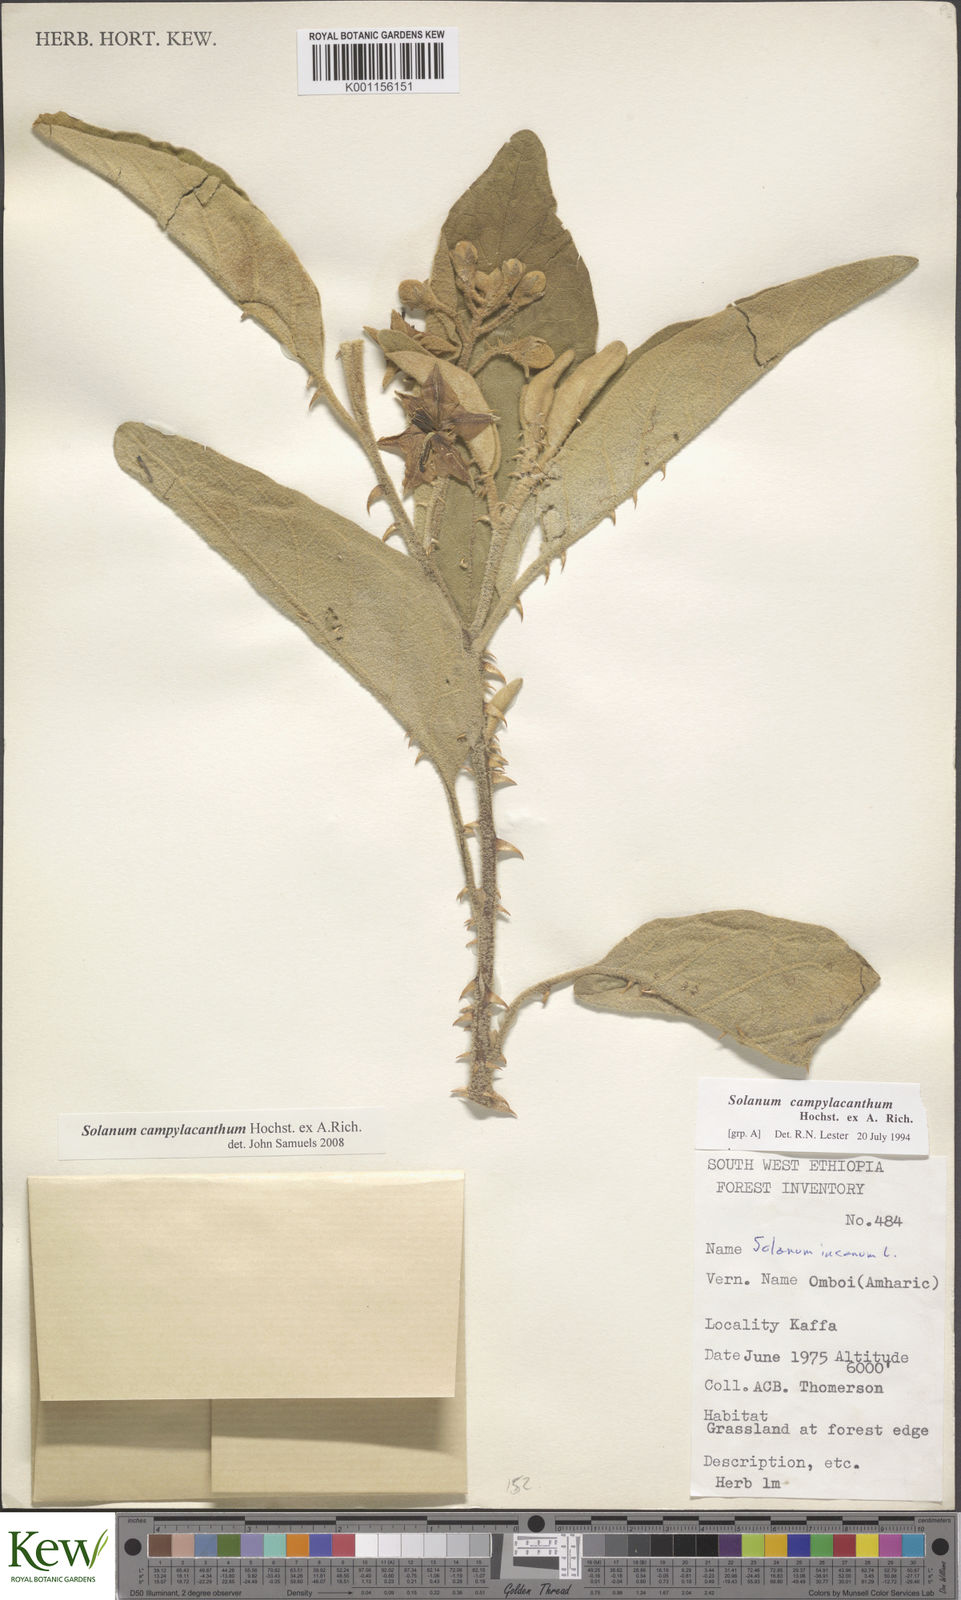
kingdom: Plantae
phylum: Tracheophyta
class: Magnoliopsida
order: Solanales
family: Solanaceae
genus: Solanum
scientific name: Solanum campylacanthum
